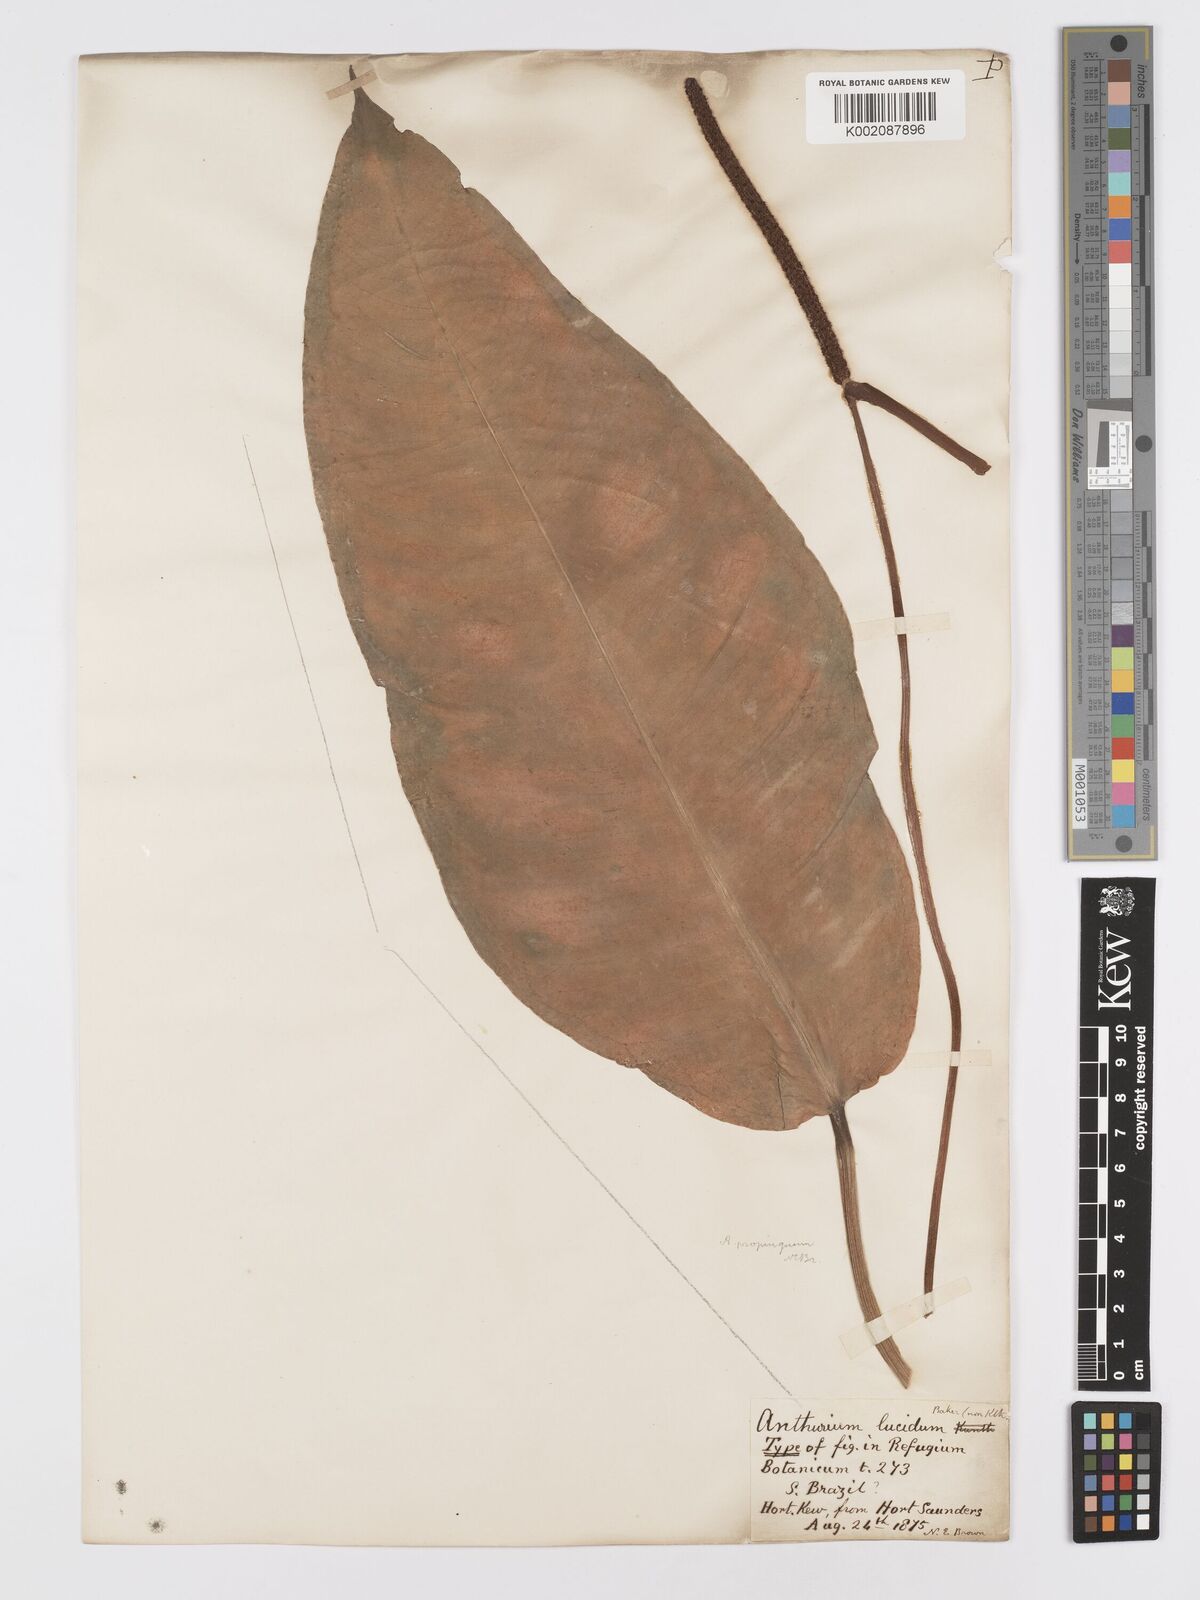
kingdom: Plantae
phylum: Tracheophyta
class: Liliopsida
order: Alismatales
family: Araceae
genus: Anthurium
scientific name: Anthurium cuspidatum
